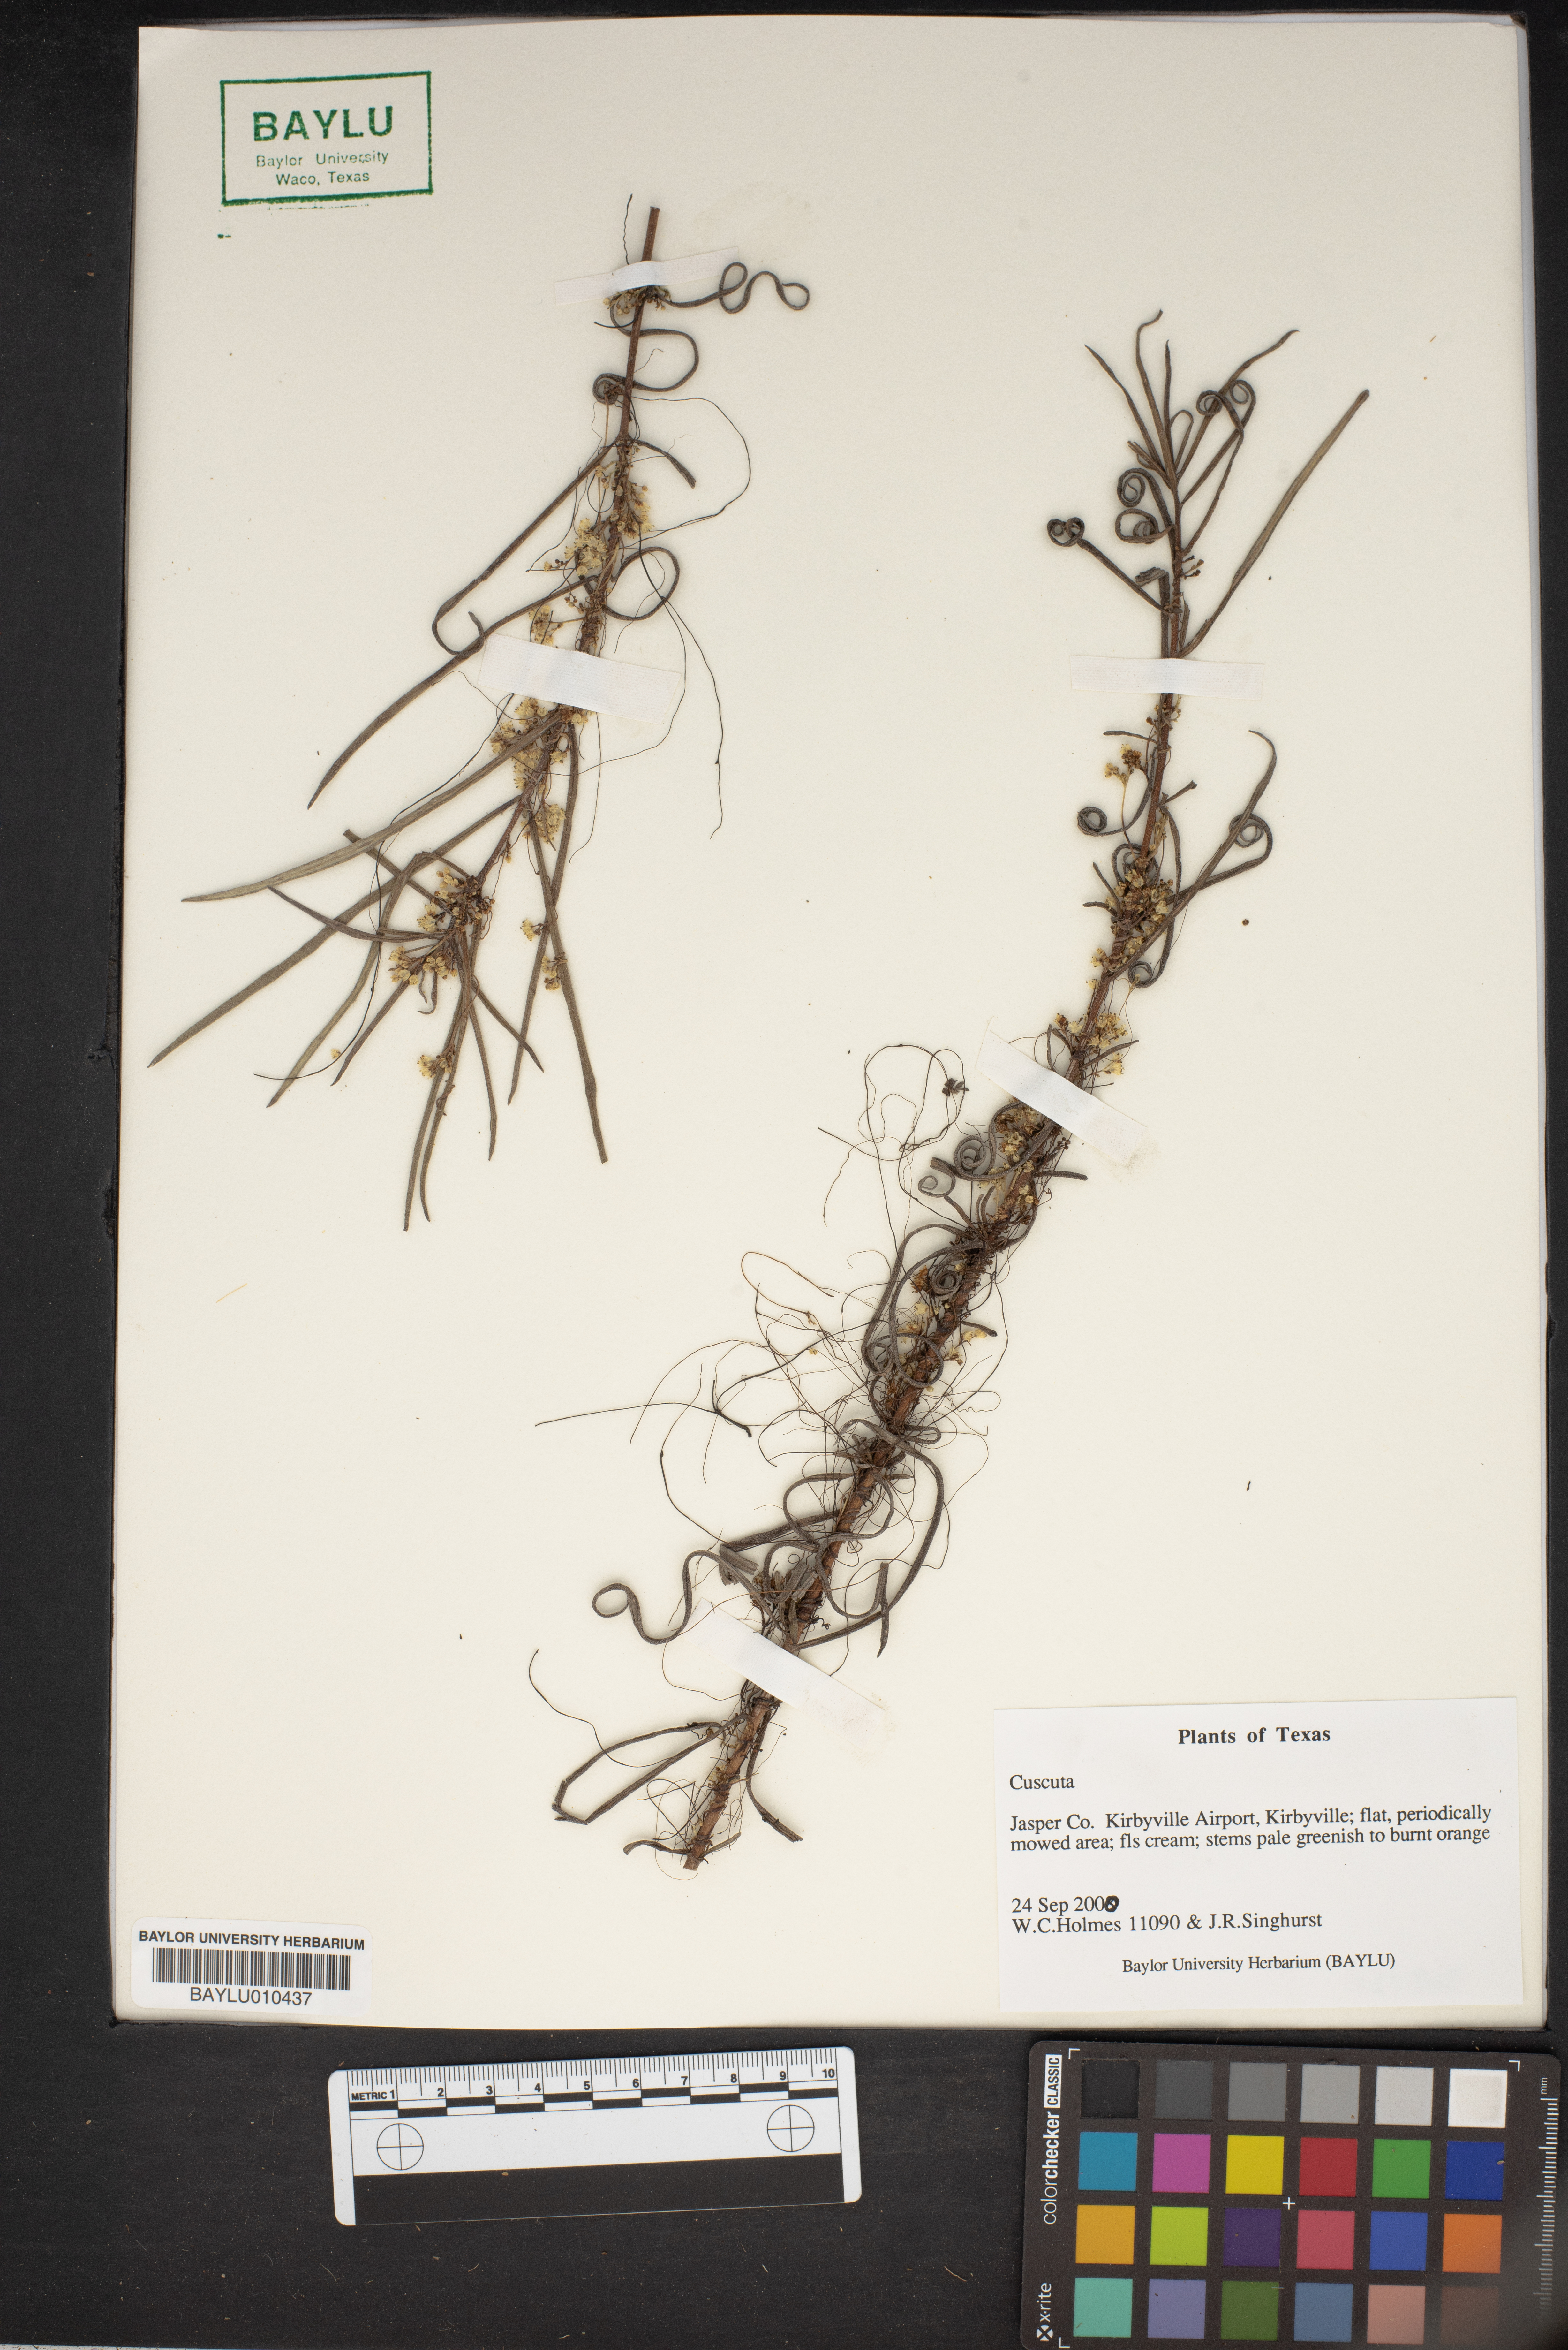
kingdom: Plantae
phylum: Tracheophyta
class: Magnoliopsida
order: Solanales
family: Convolvulaceae
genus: Cuscuta
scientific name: Cuscuta
